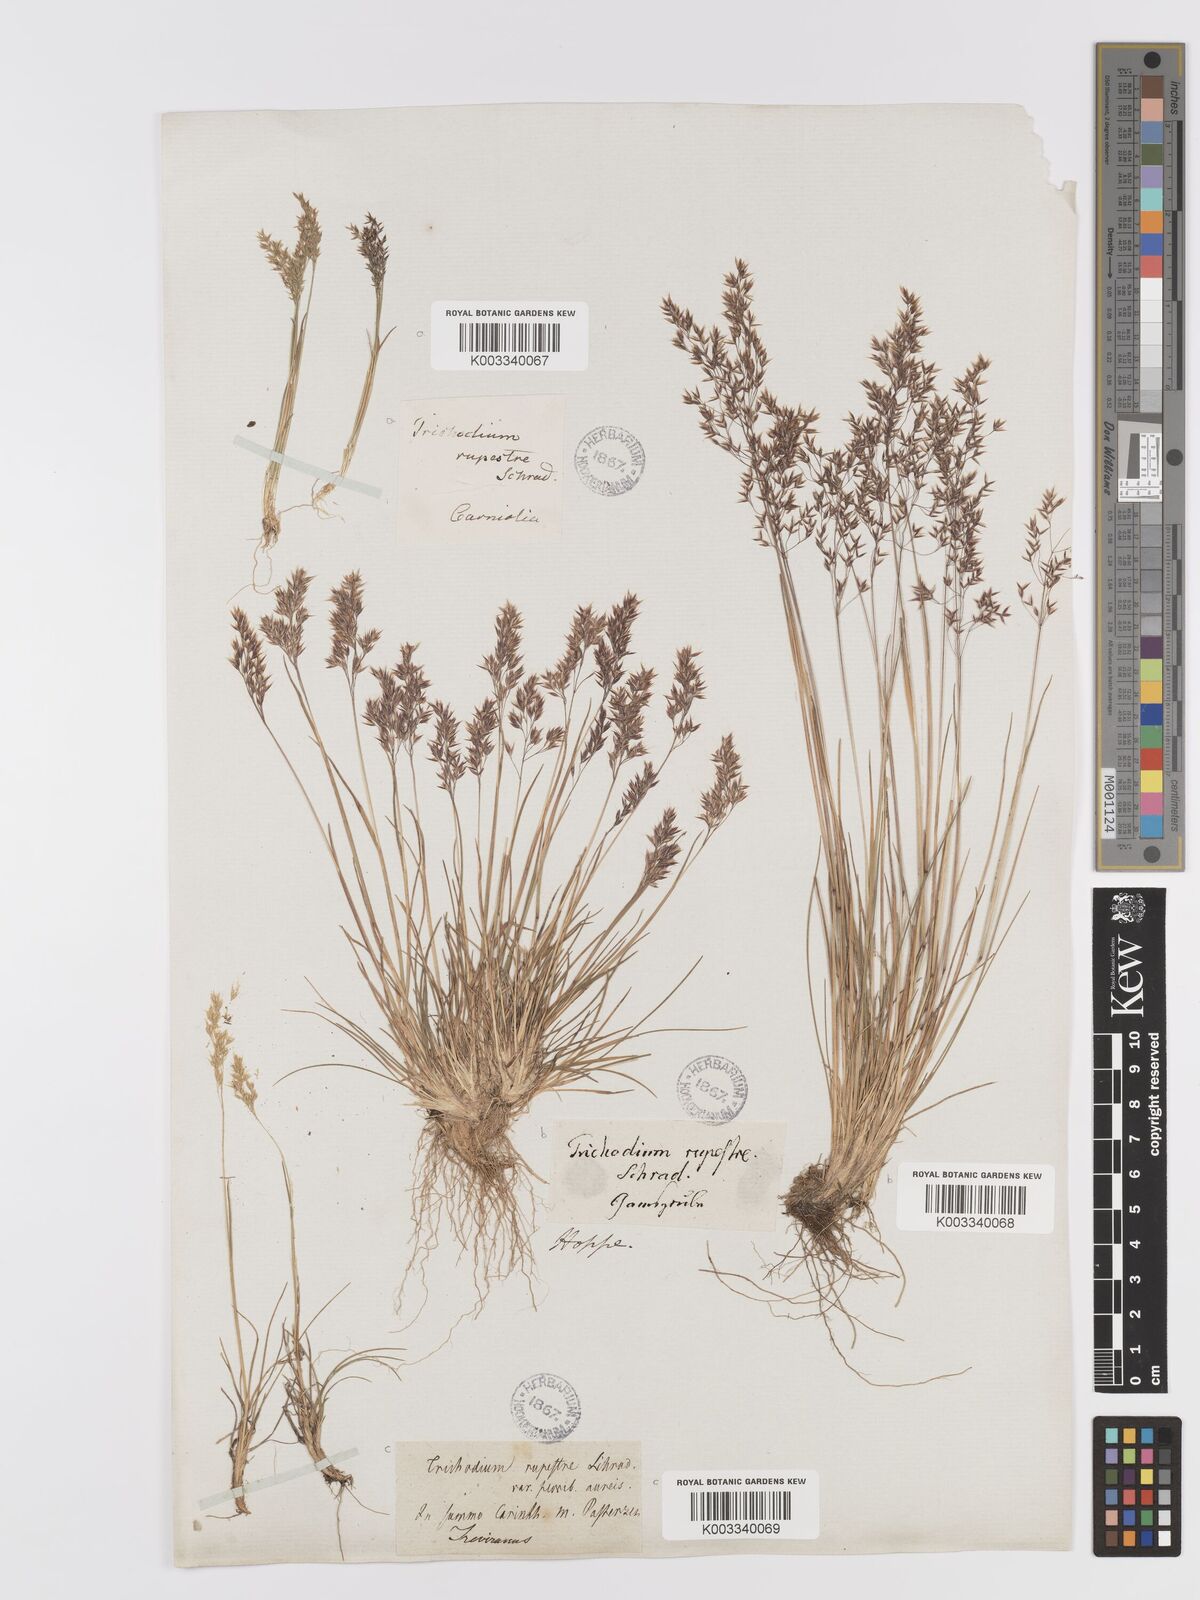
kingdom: Plantae
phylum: Tracheophyta
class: Liliopsida
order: Poales
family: Poaceae
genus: Agrostis
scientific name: Agrostis rupestris
